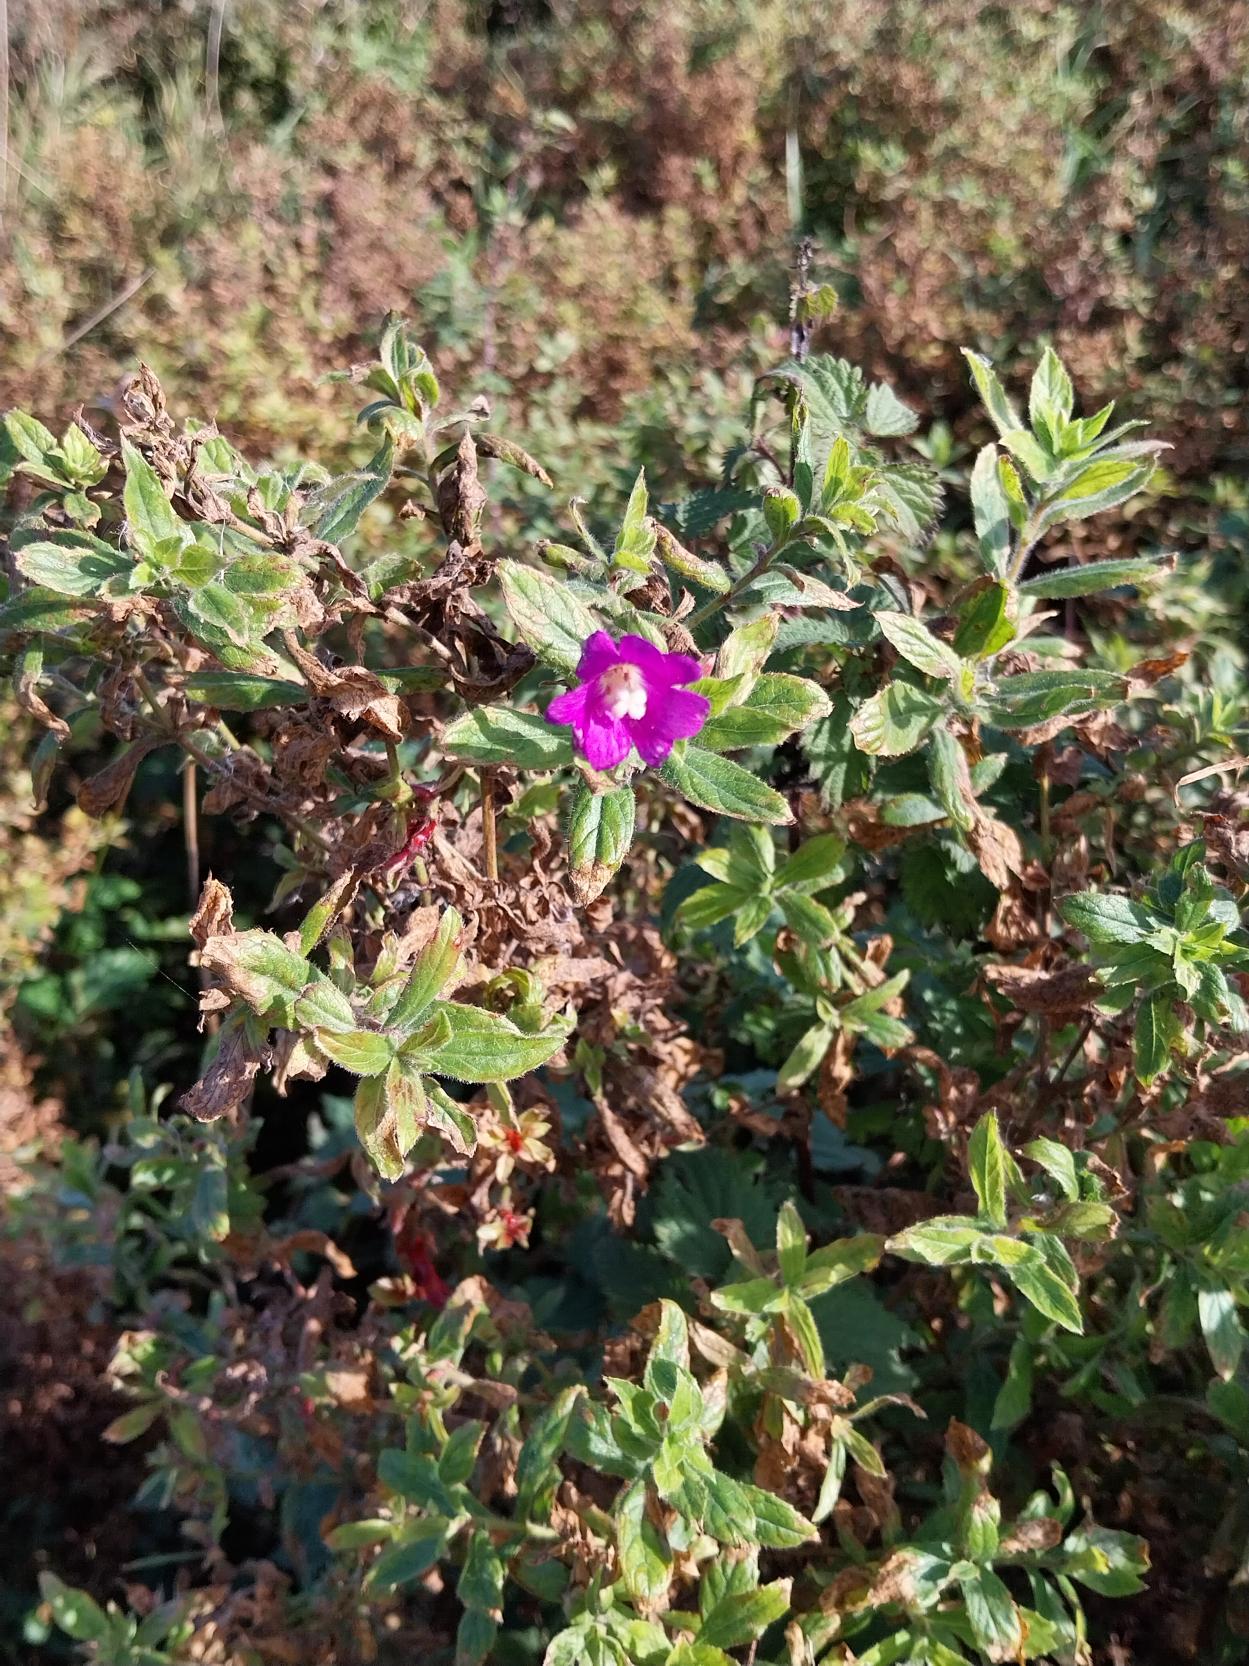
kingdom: Plantae
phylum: Tracheophyta
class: Magnoliopsida
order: Myrtales
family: Onagraceae
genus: Epilobium
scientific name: Epilobium hirsutum
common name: Lådden dueurt
